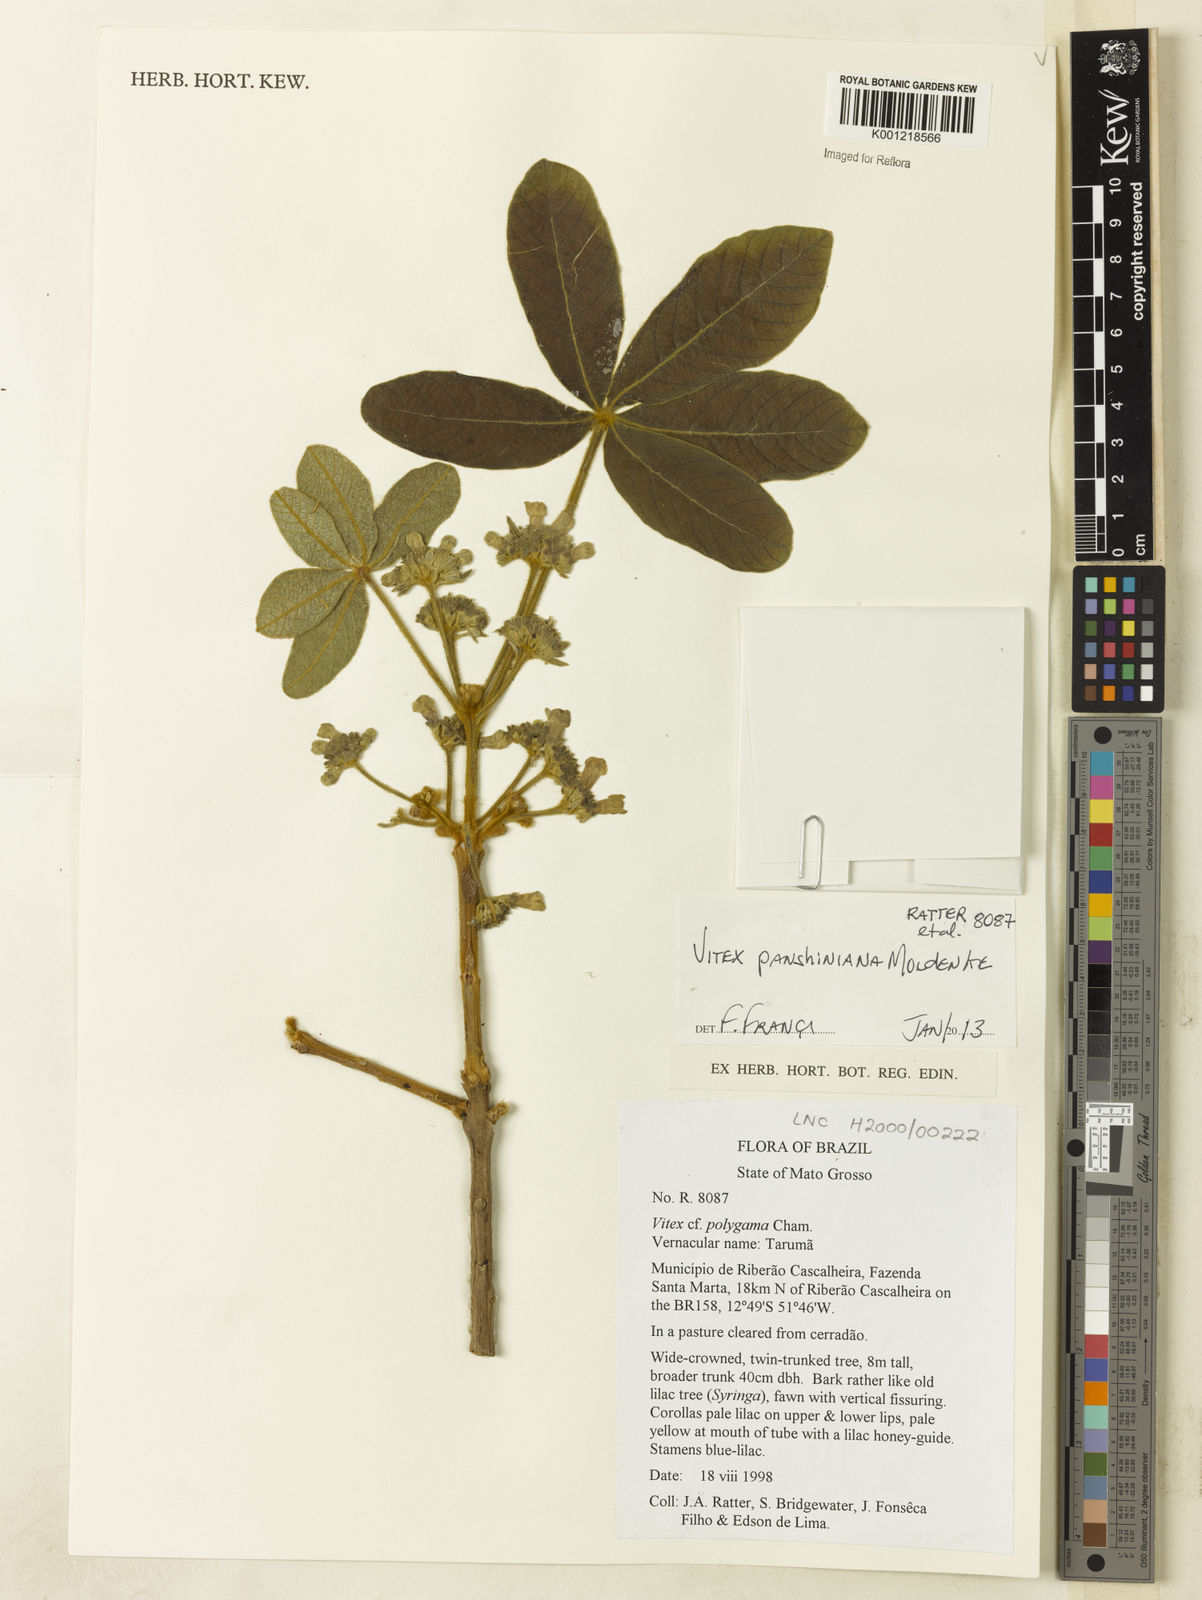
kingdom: Plantae
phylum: Tracheophyta
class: Magnoliopsida
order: Lamiales
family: Lamiaceae
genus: Vitex
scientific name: Vitex panshiniana
